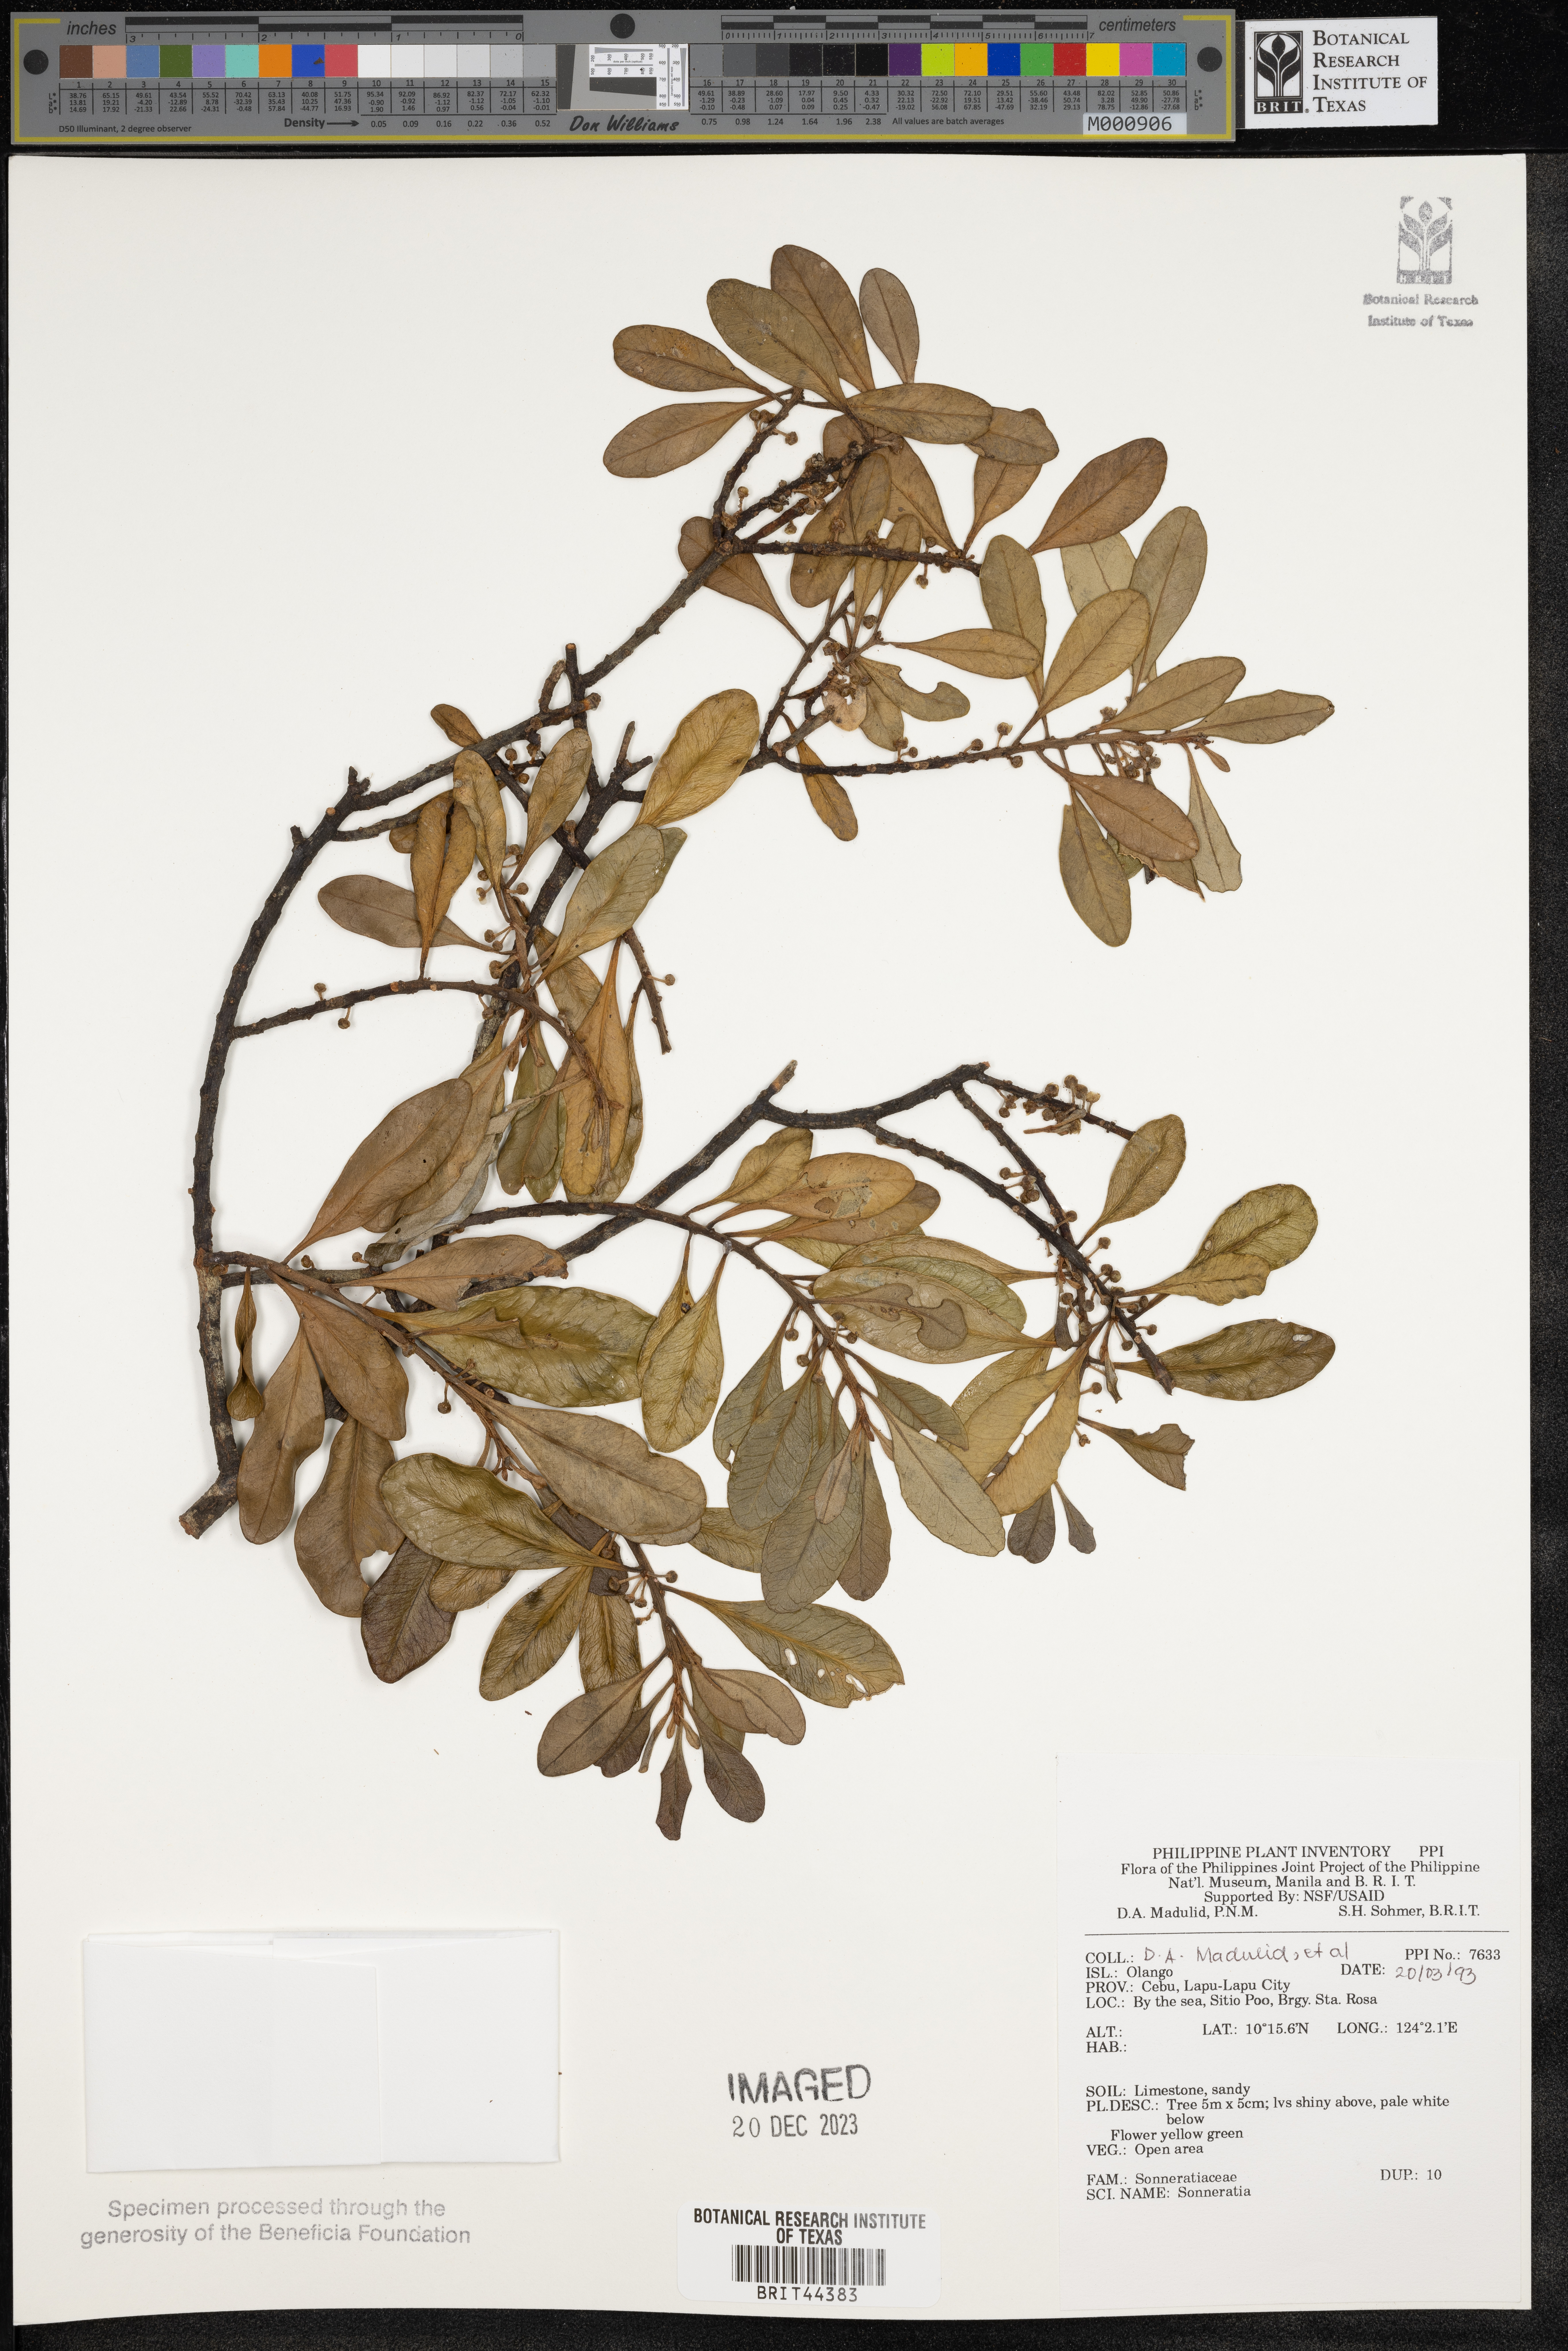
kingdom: Plantae
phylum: Tracheophyta
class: Magnoliopsida
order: Myrtales
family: Lythraceae
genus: Sonneratia
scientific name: Sonneratia
